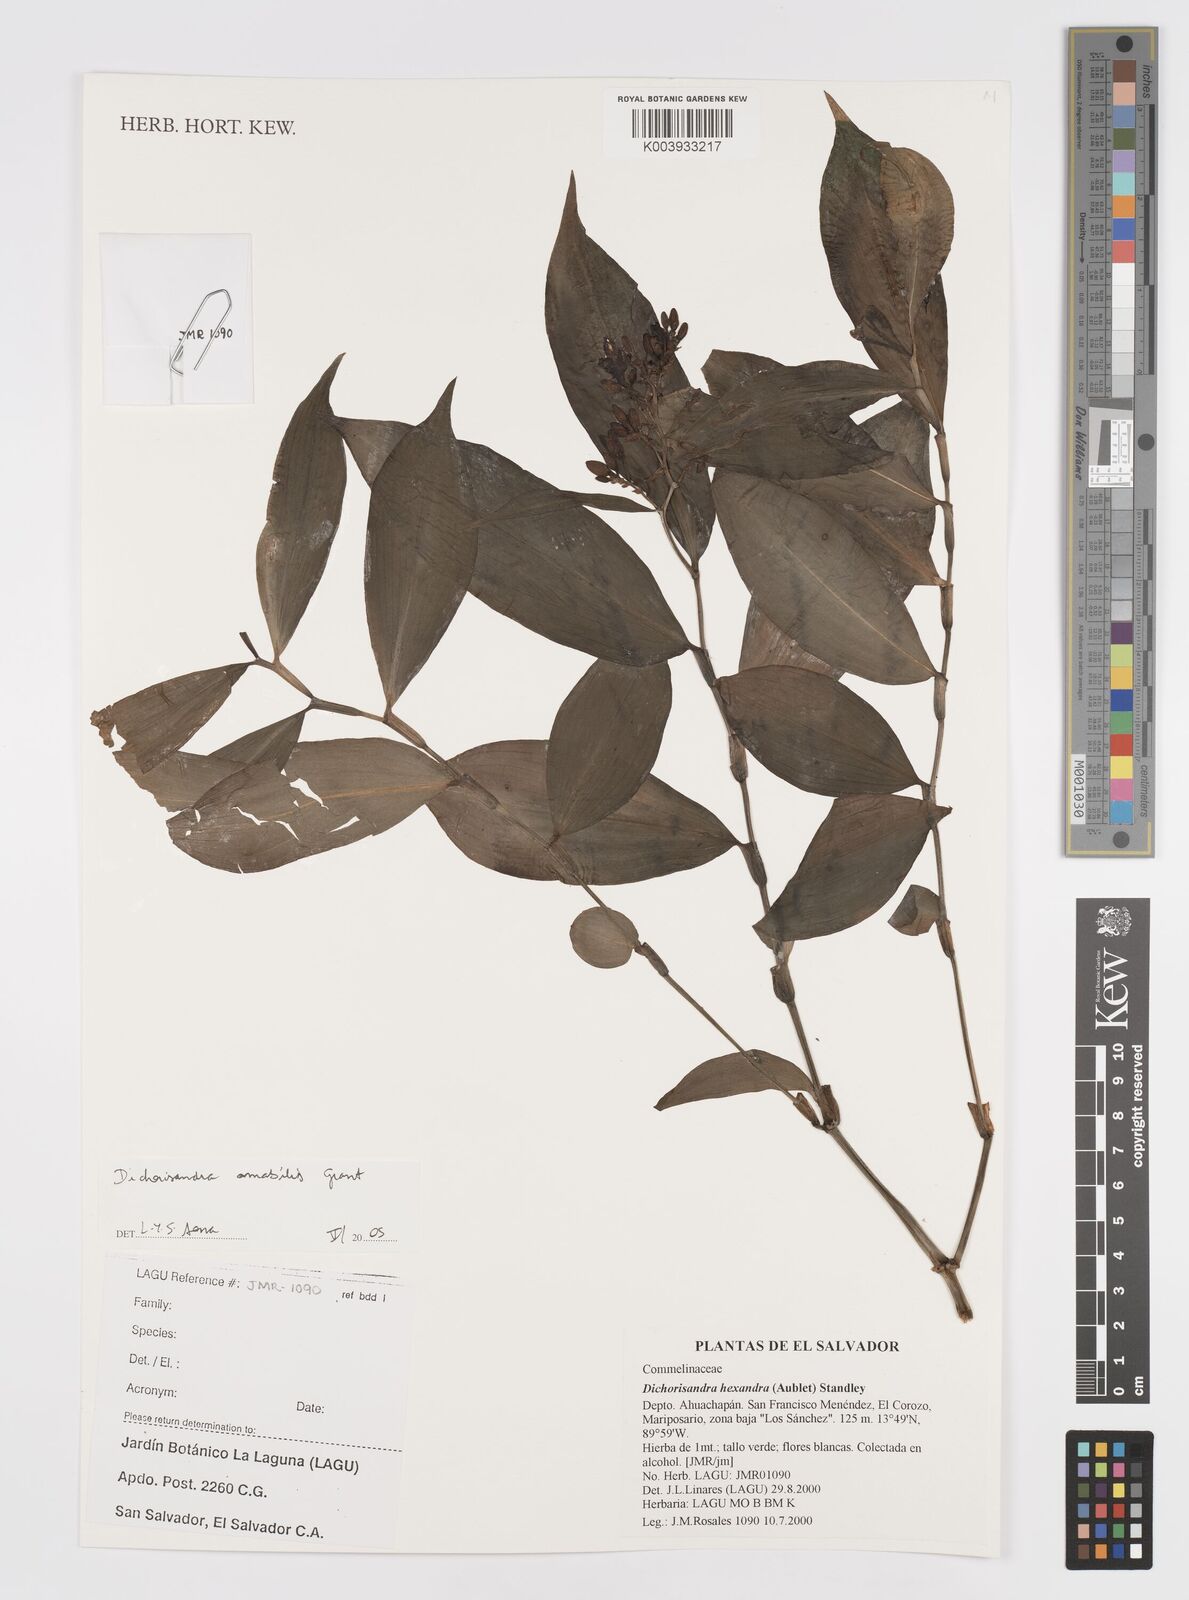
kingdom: Plantae
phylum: Tracheophyta
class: Liliopsida
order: Commelinales
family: Commelinaceae
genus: Dichorisandra
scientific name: Dichorisandra amabilis
